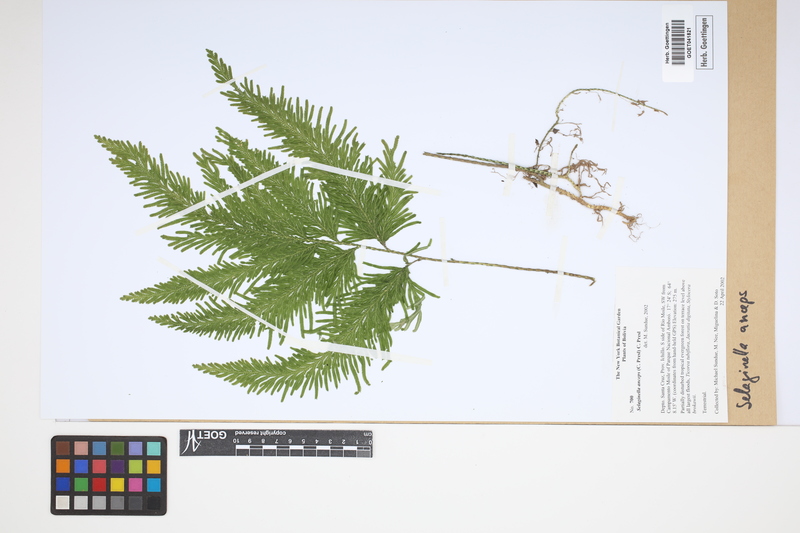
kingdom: Plantae
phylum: Tracheophyta
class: Lycopodiopsida
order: Selaginellales
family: Selaginellaceae
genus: Selaginella
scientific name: Selaginella anceps
